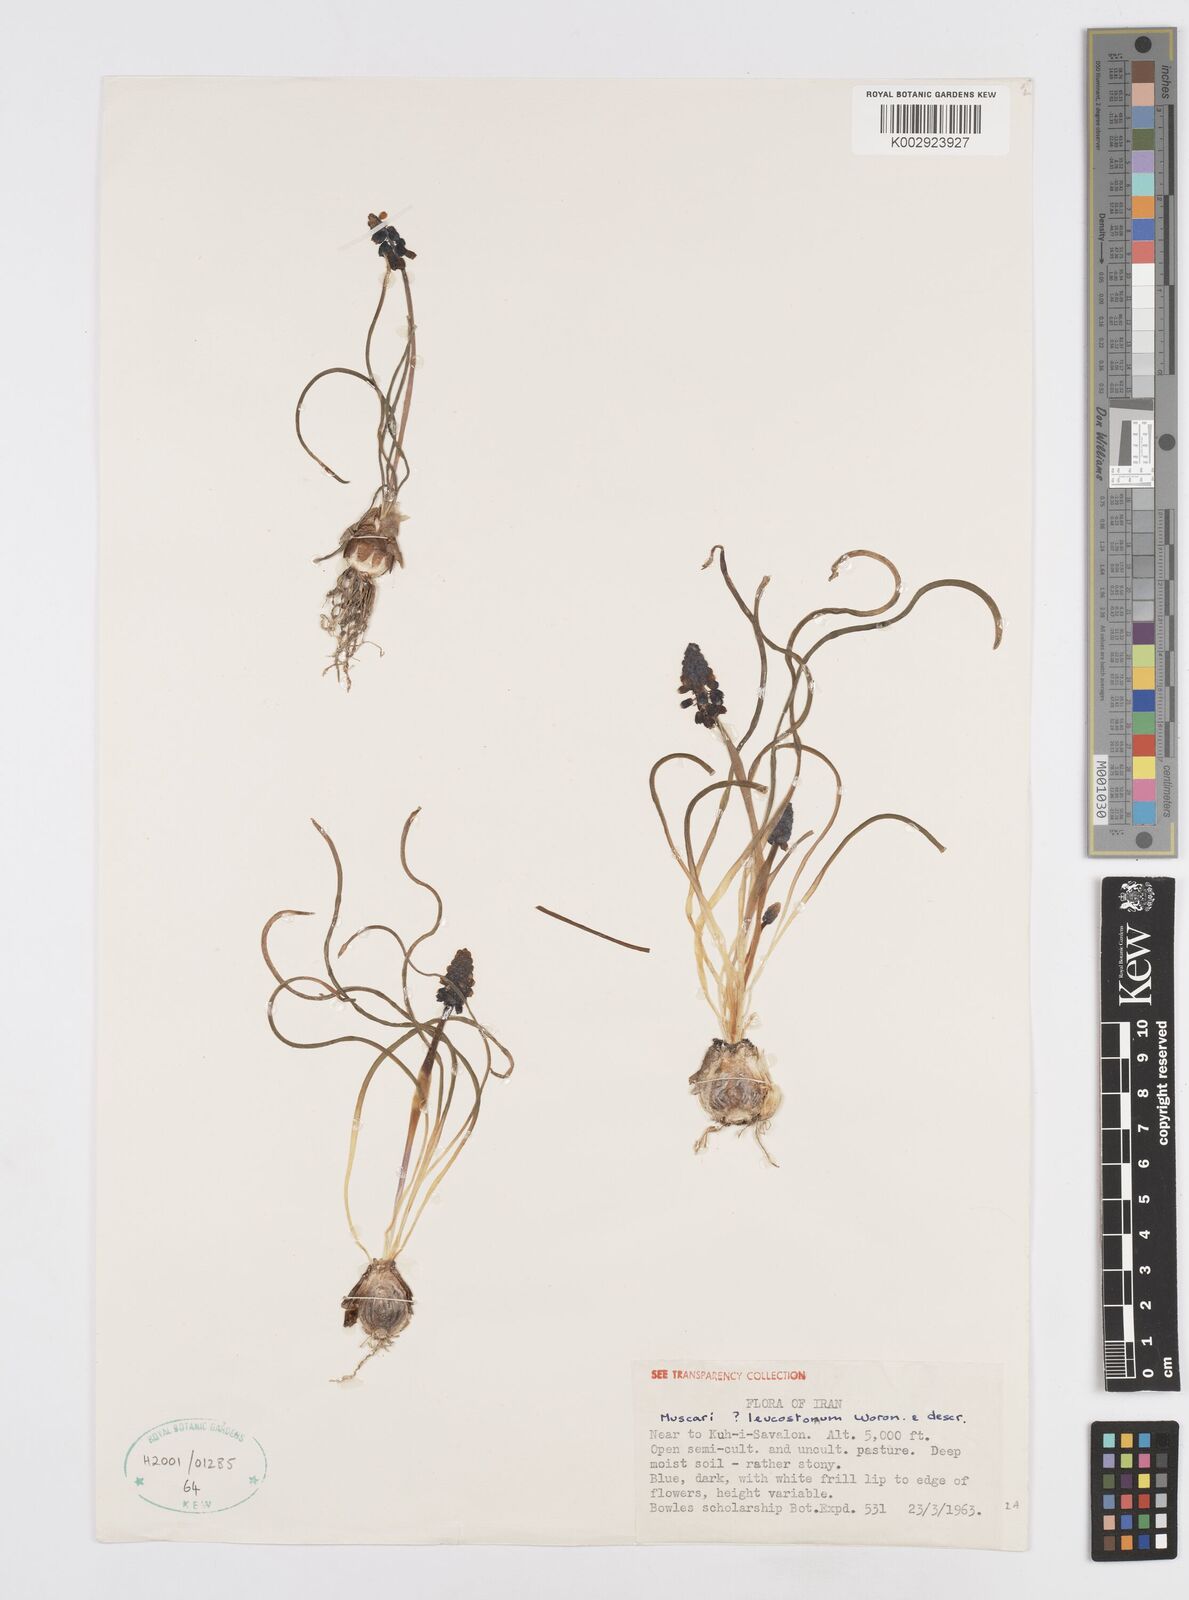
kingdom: Plantae
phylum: Tracheophyta
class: Liliopsida
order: Asparagales
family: Asparagaceae
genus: Muscari
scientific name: Muscari neglectum
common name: Grape-hyacinth
